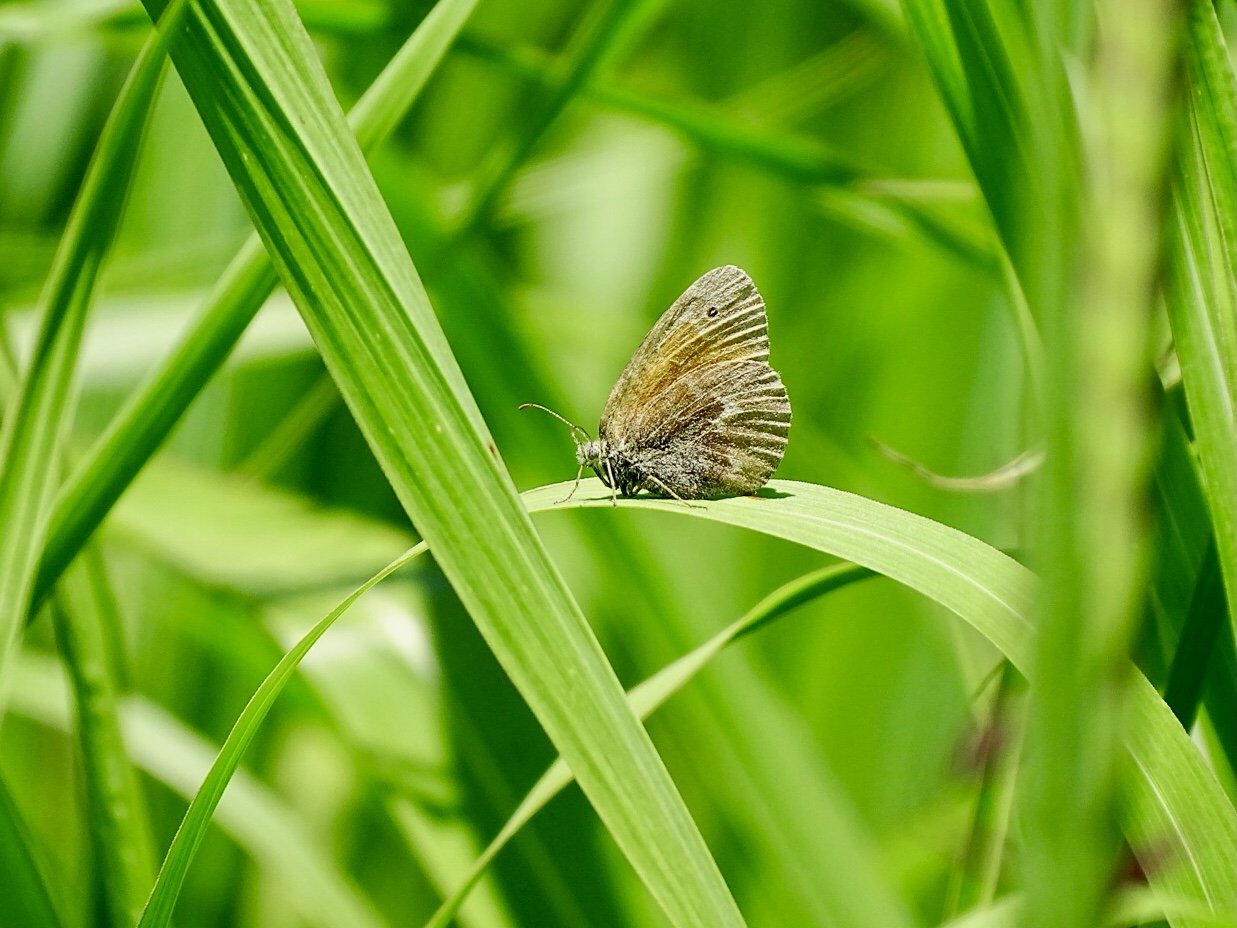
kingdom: Animalia
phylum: Arthropoda
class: Insecta
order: Lepidoptera
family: Nymphalidae
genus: Coenonympha
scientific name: Coenonympha tullia
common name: Large Heath
